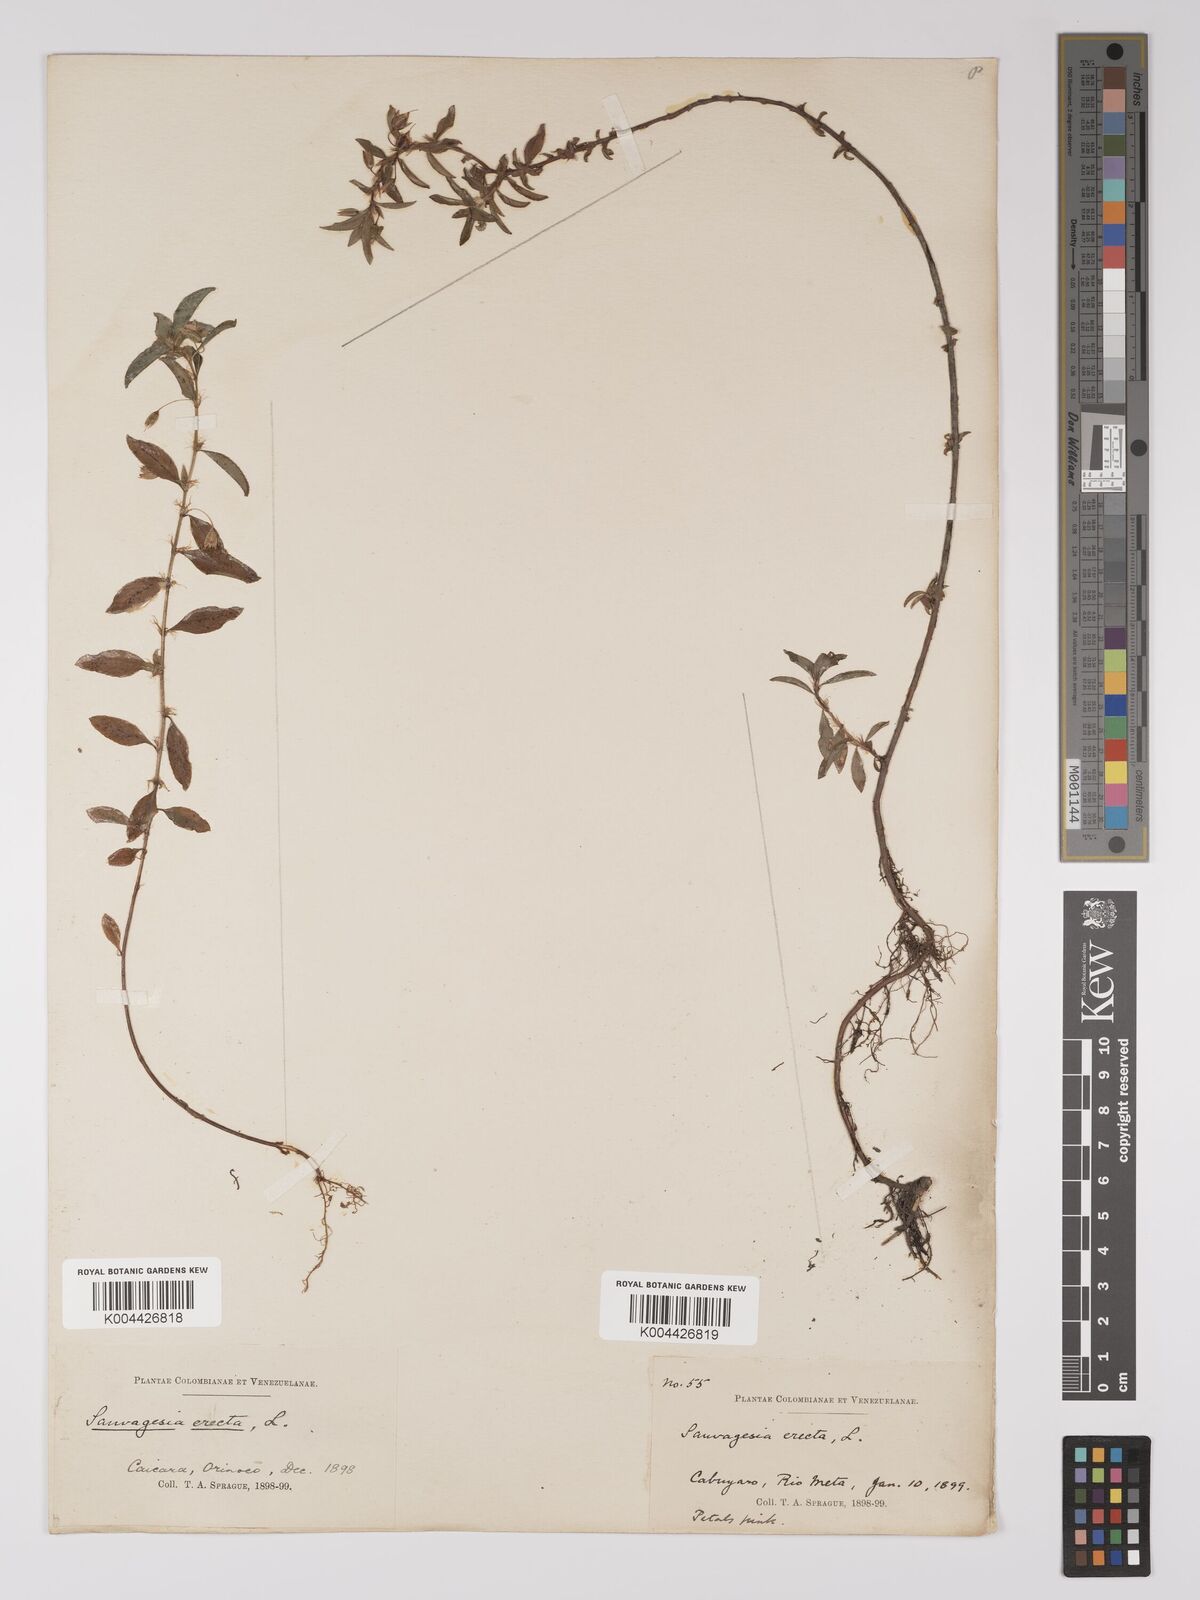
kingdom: Plantae
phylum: Tracheophyta
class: Magnoliopsida
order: Malpighiales
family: Ochnaceae
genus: Sauvagesia
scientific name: Sauvagesia erecta
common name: Creole tea
